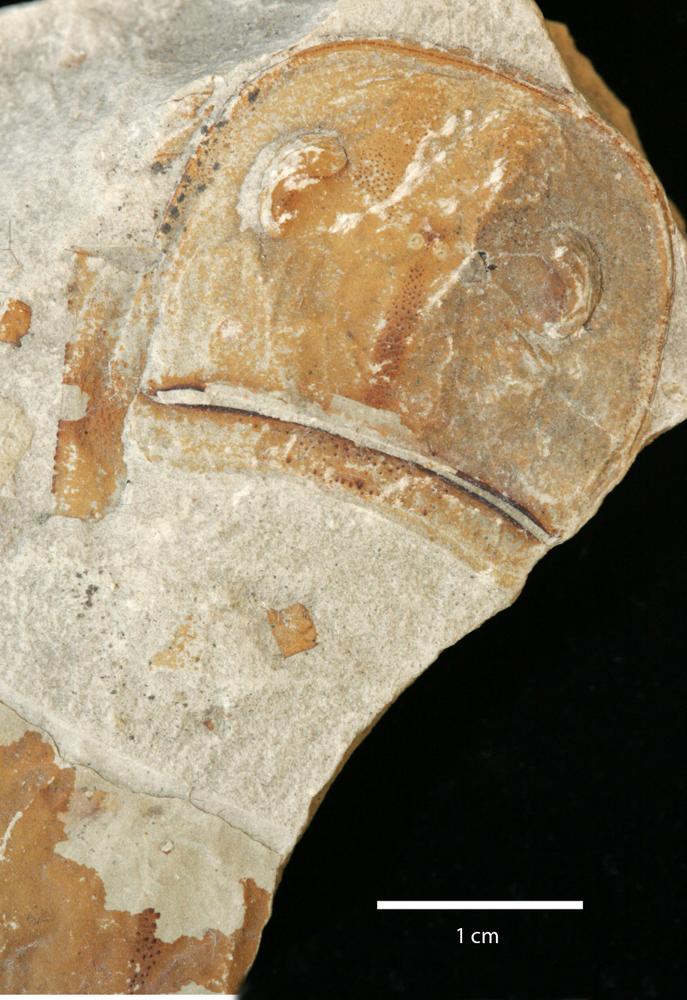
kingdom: Animalia
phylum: Arthropoda
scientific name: Arthropoda
